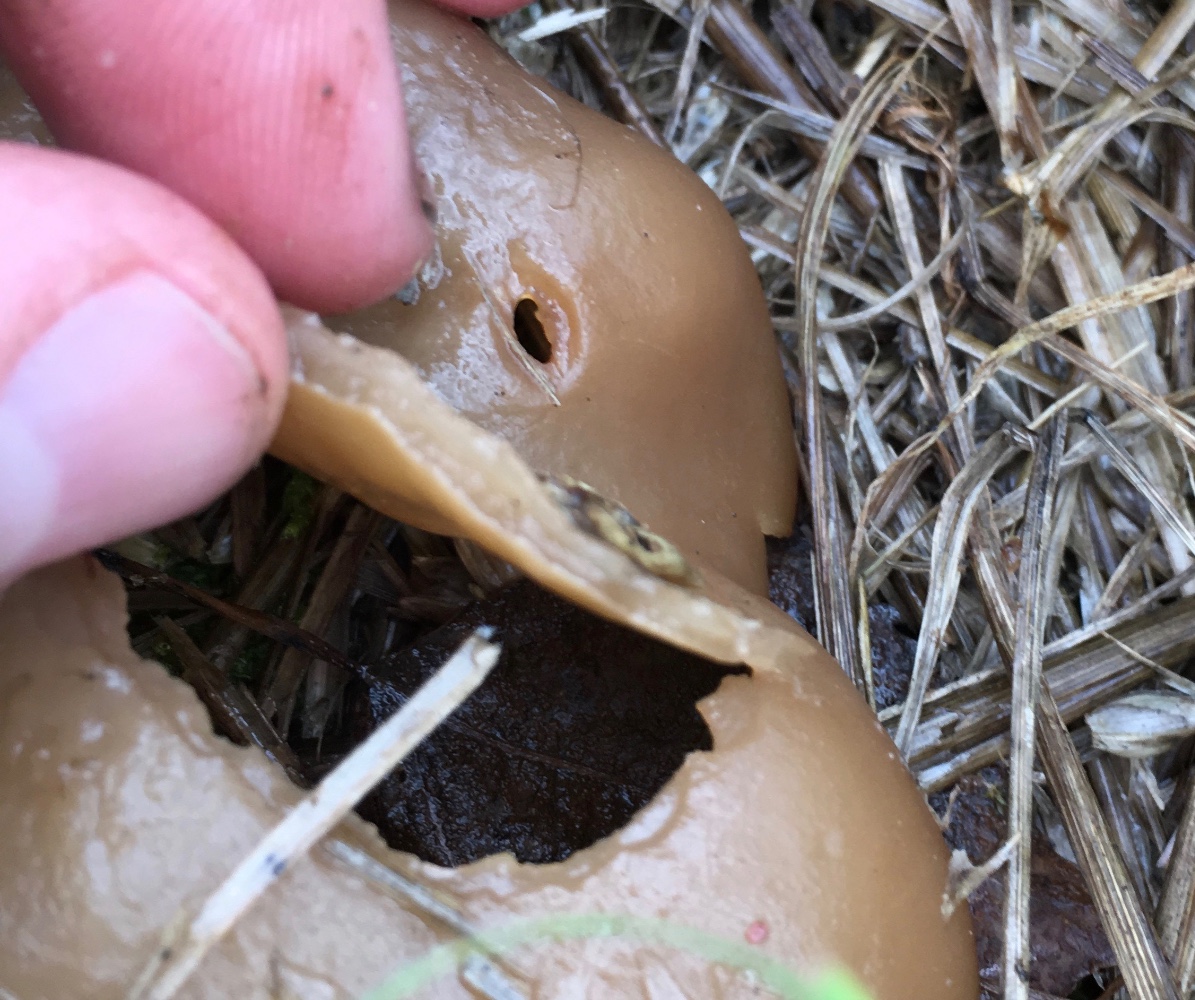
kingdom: Fungi
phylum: Ascomycota
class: Pezizomycetes
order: Pezizales
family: Pezizaceae
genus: Peziza
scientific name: Peziza vesiculosa
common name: blære-bægersvamp
